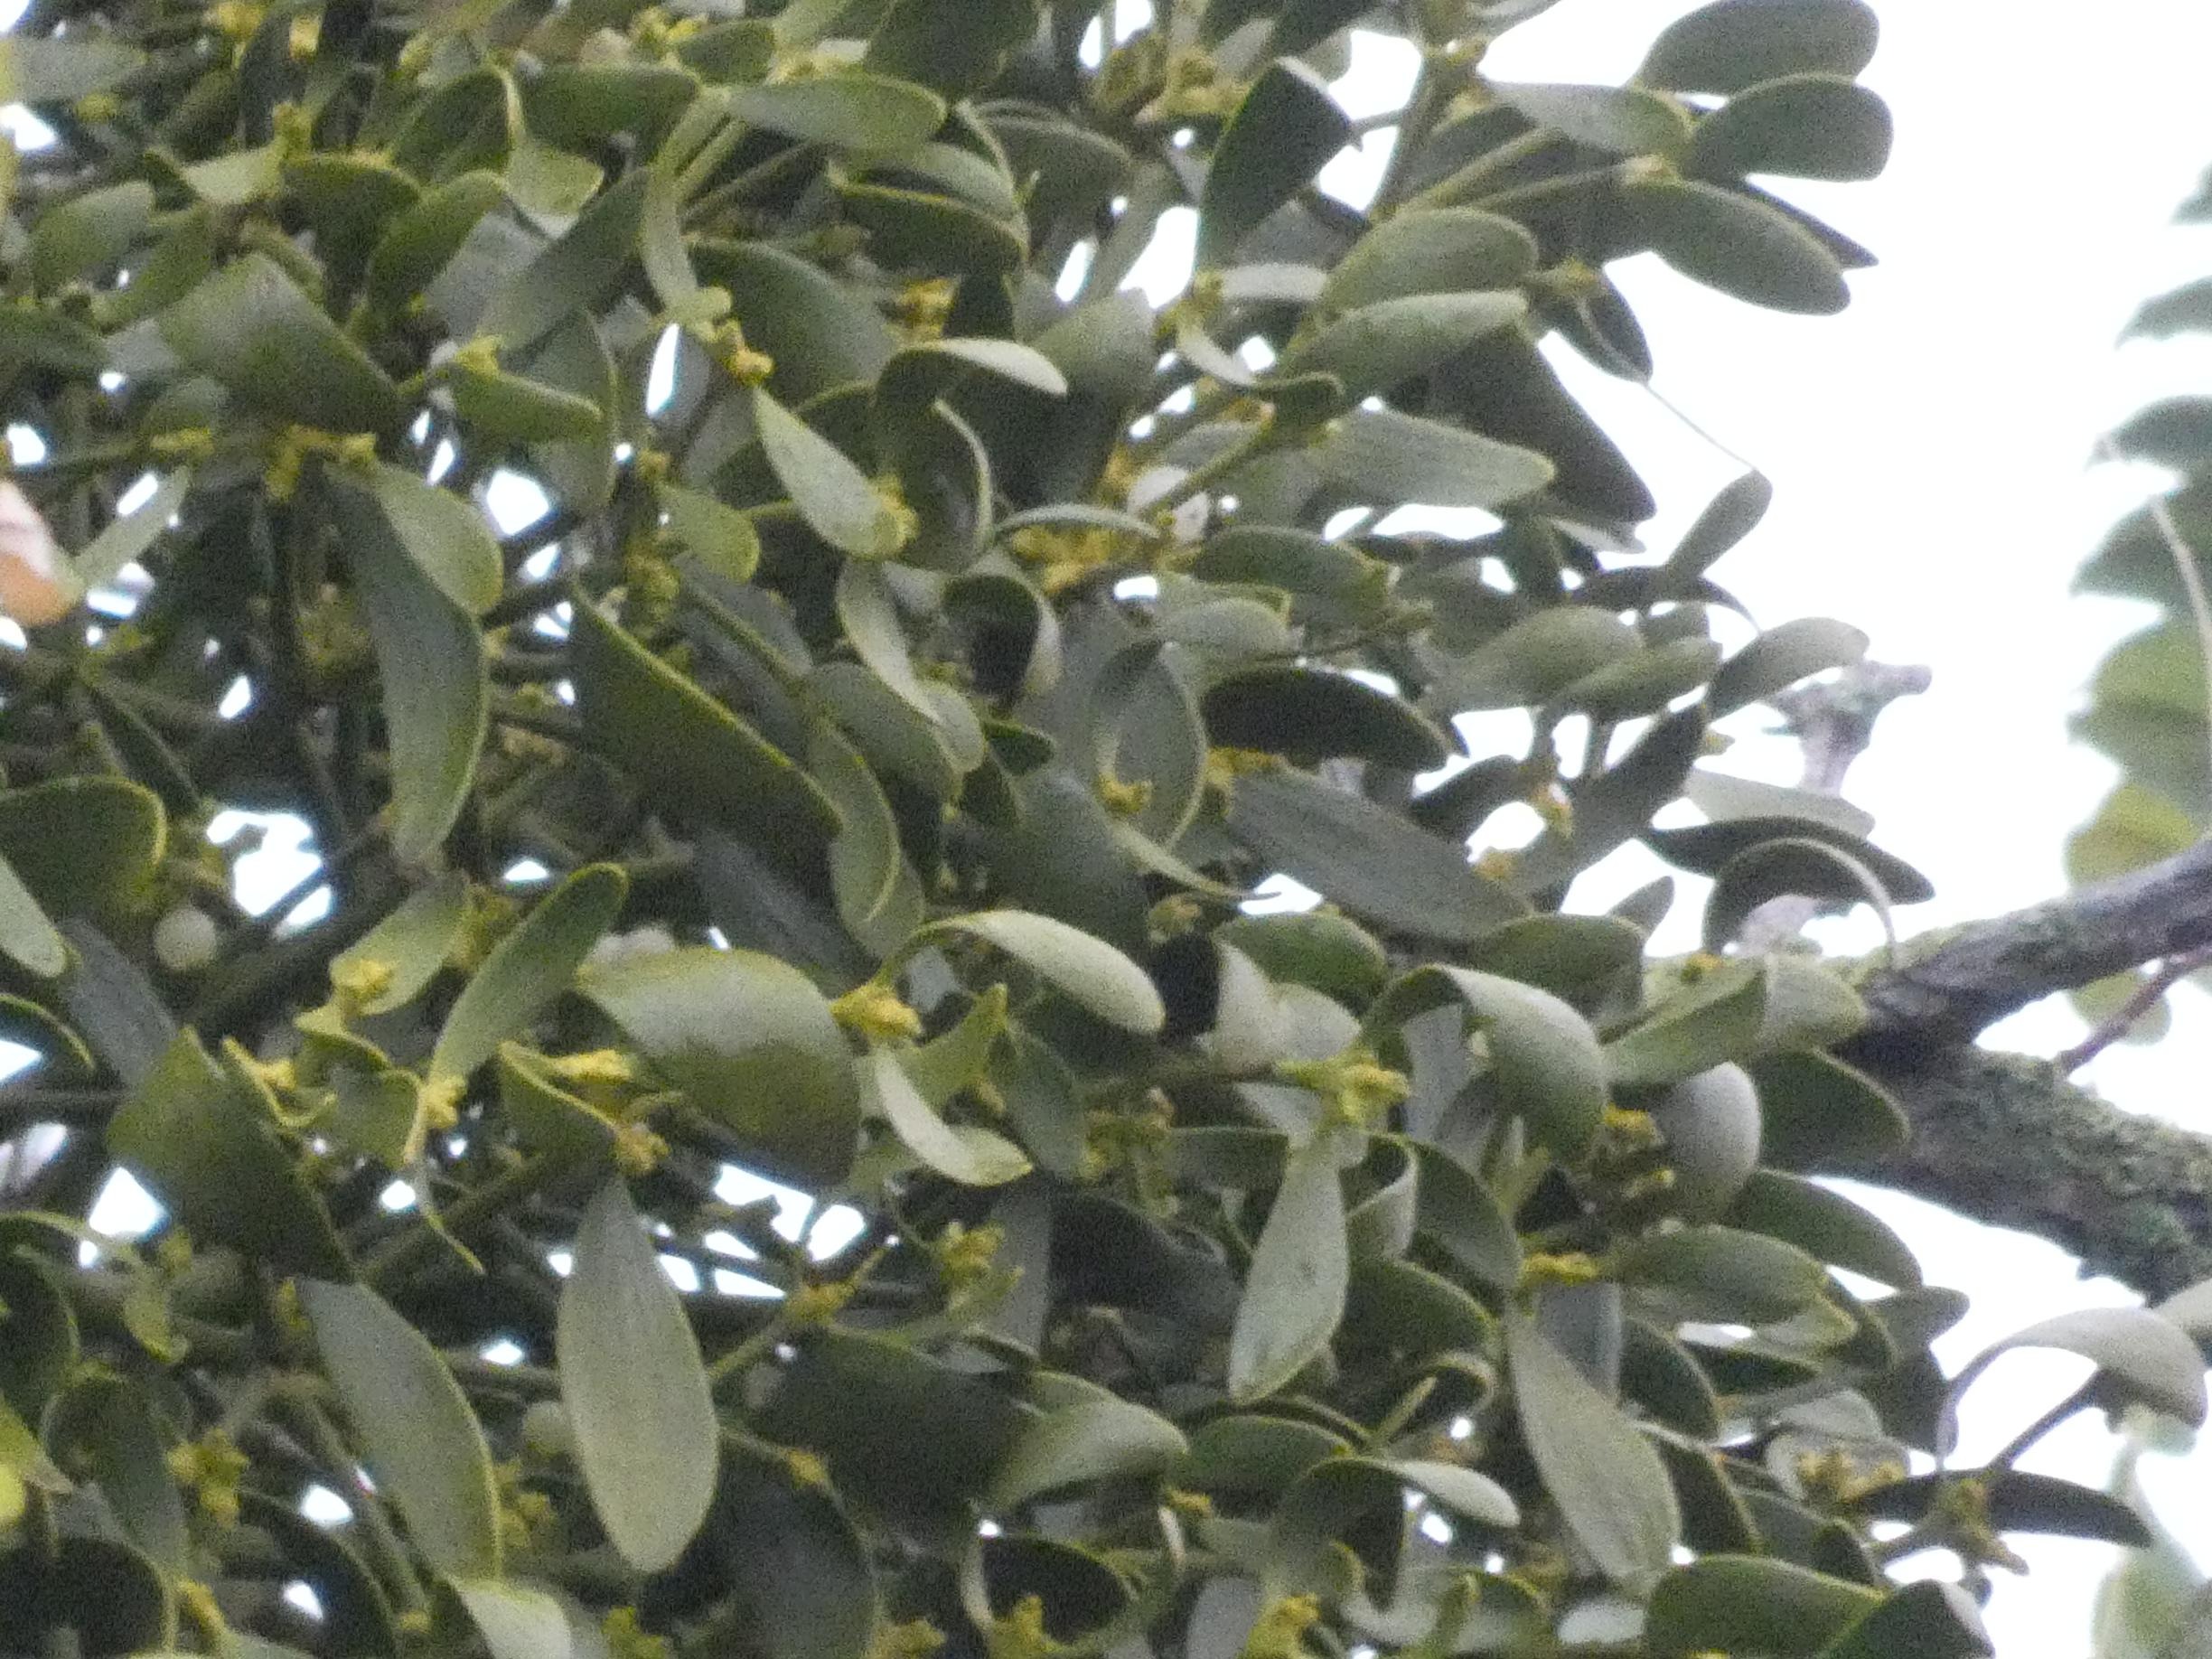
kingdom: Plantae
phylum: Tracheophyta
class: Magnoliopsida
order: Santalales
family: Viscaceae
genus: Viscum
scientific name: Viscum album
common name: Mistelten
